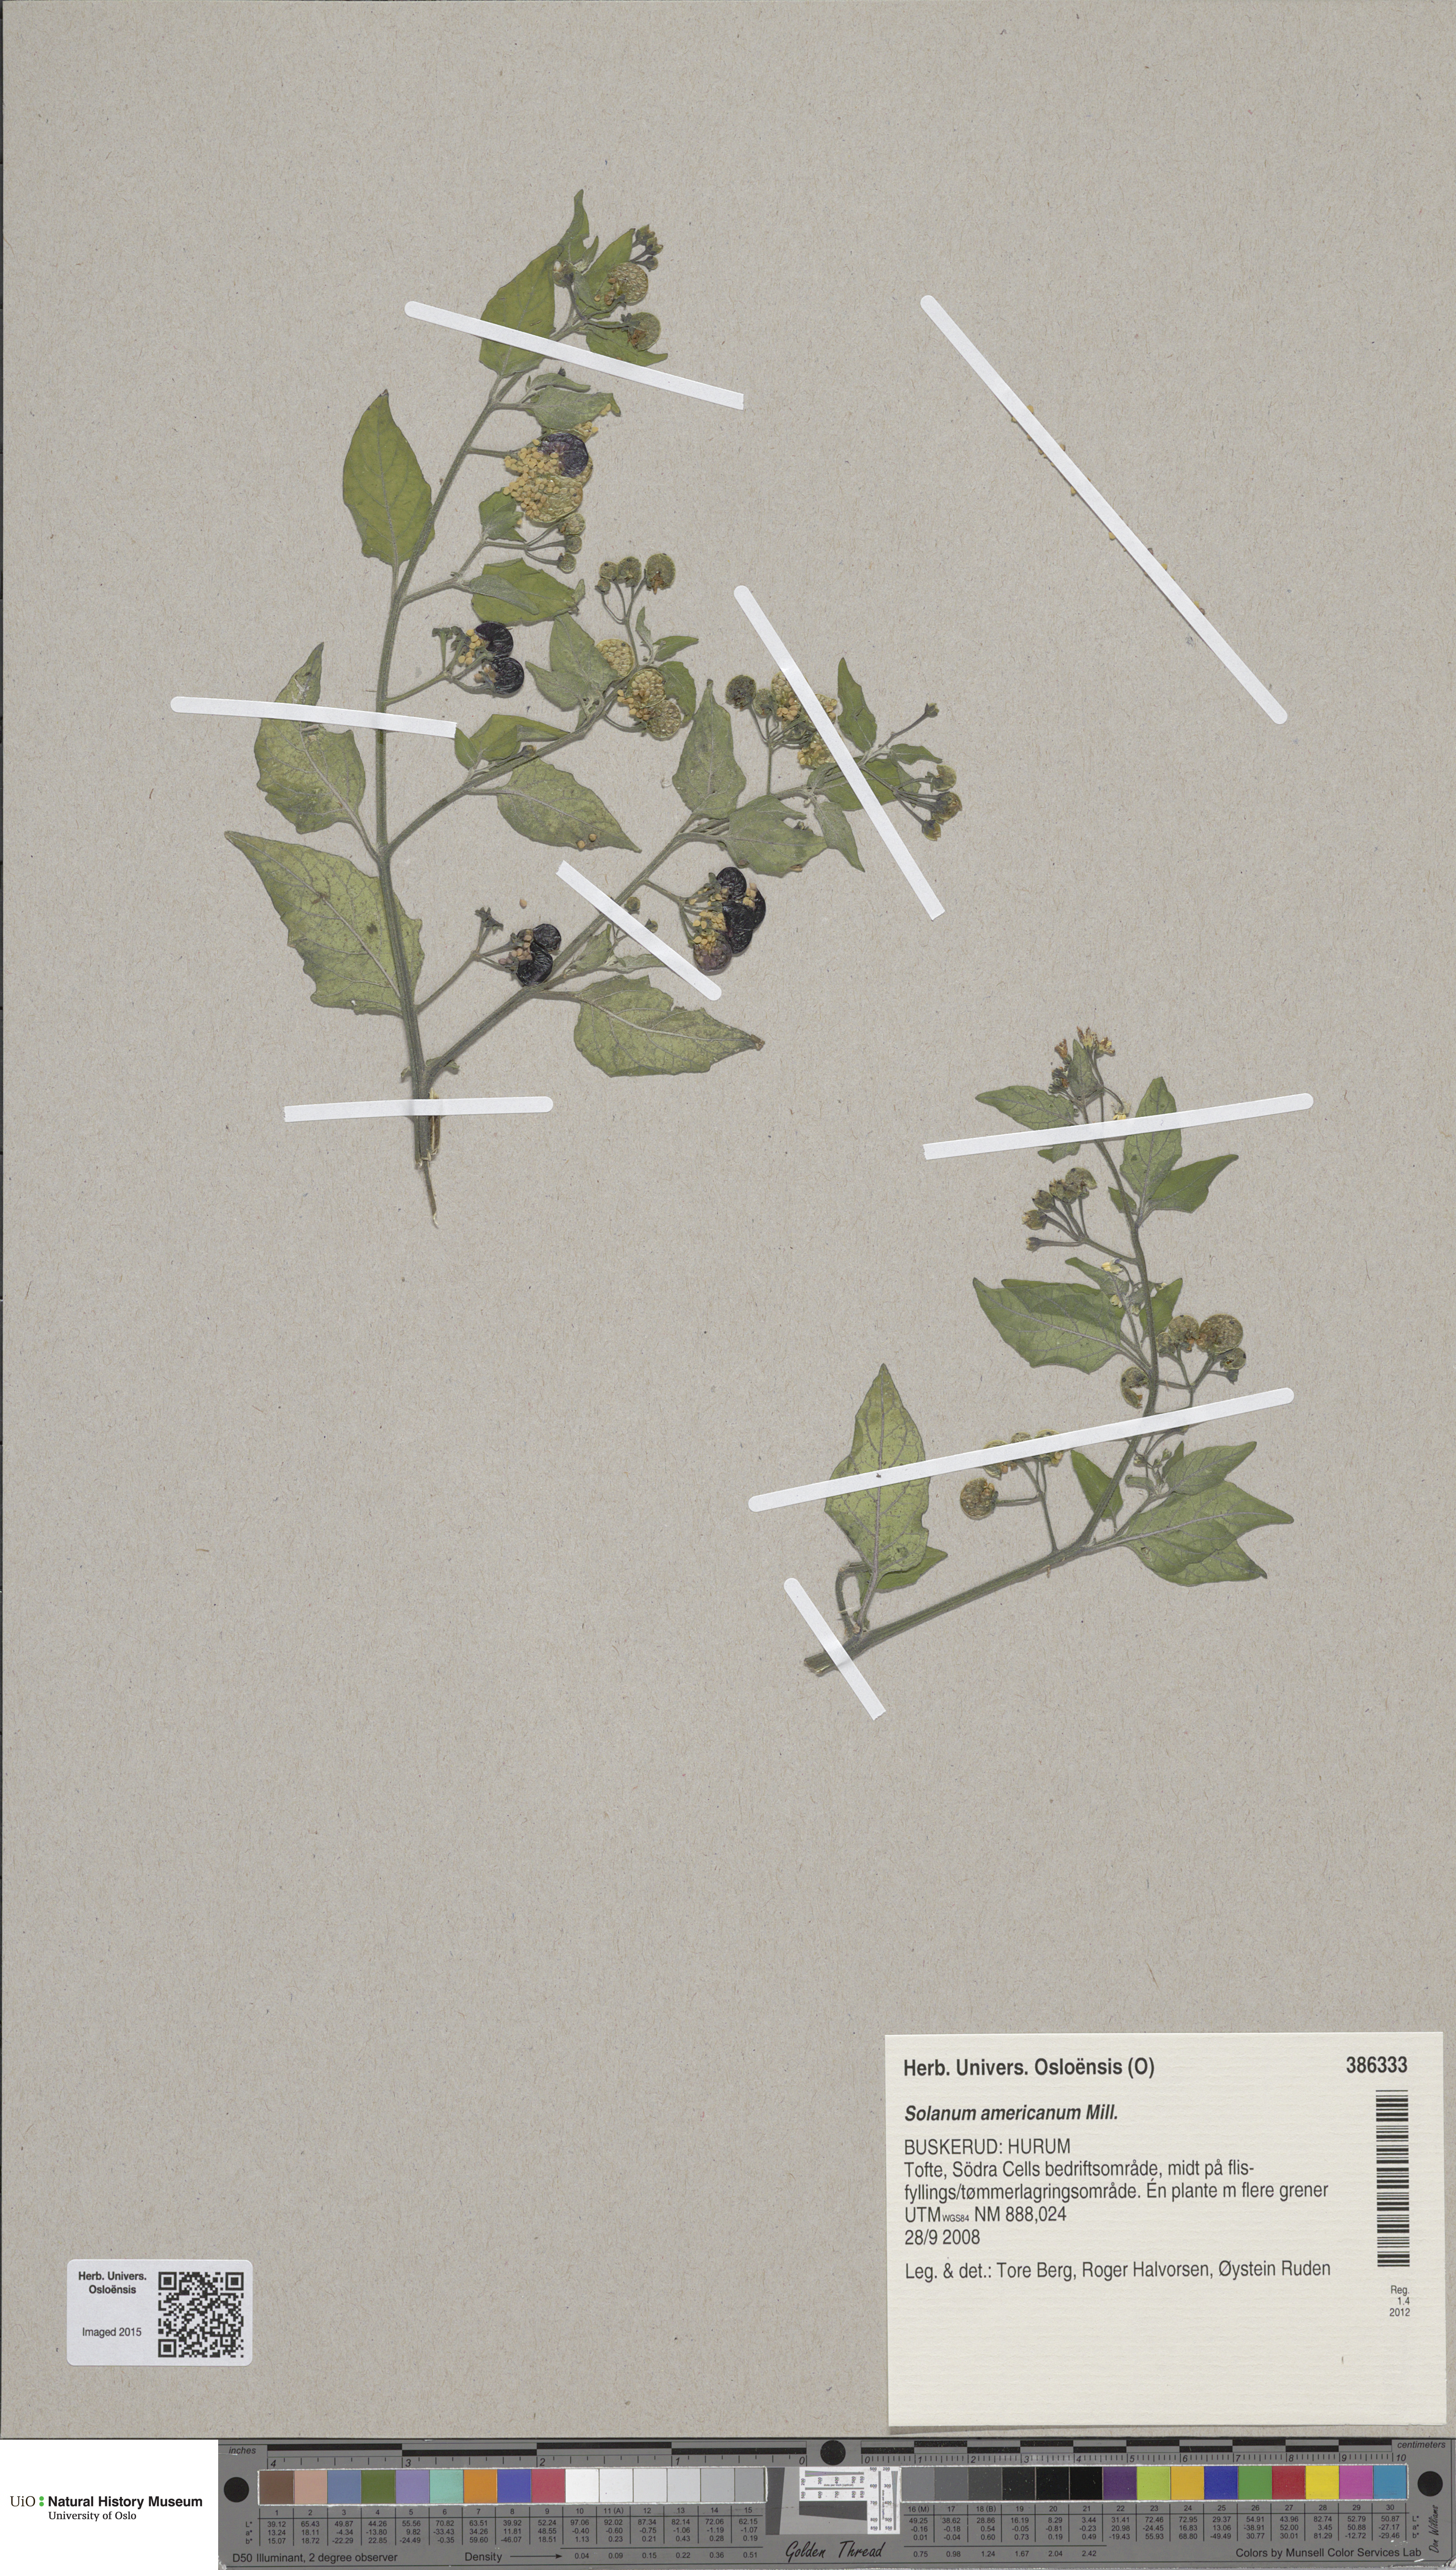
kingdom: Plantae
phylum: Tracheophyta
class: Magnoliopsida
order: Solanales
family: Solanaceae
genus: Solanum
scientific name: Solanum americanum
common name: American black nightshade
